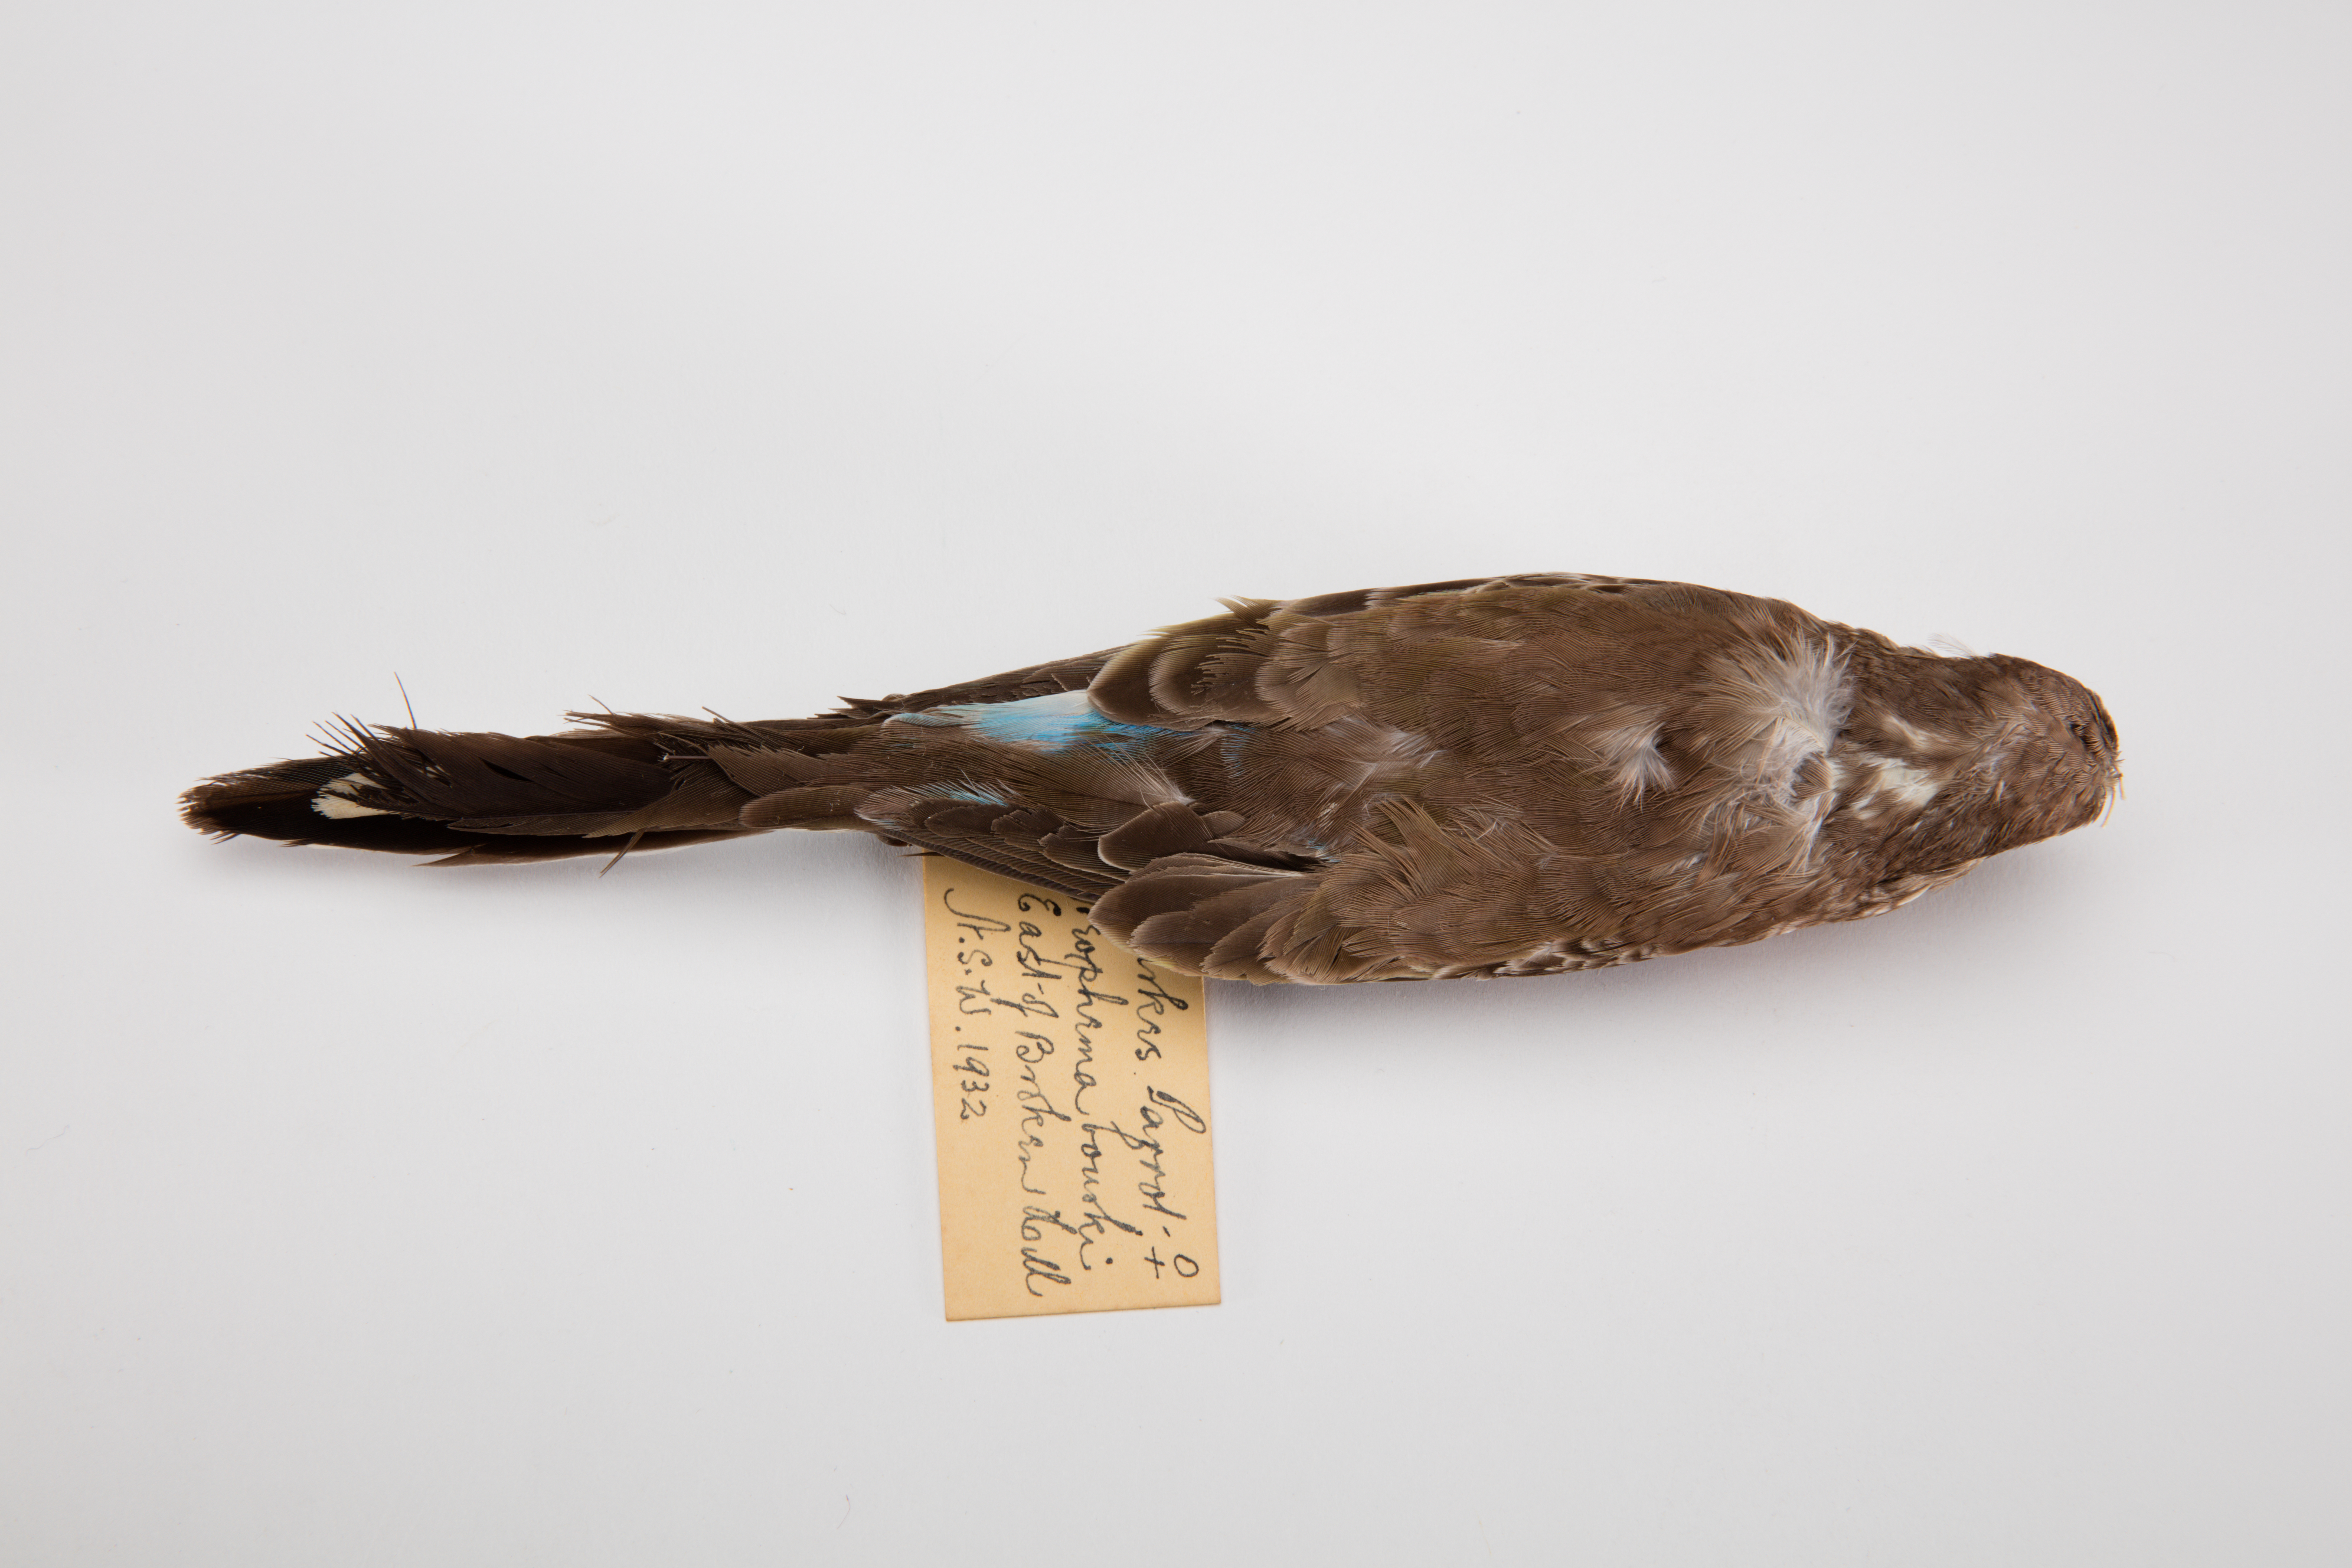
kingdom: Animalia
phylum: Chordata
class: Aves
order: Psittaciformes
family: Psittacidae
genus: Neopsephotus
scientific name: Neopsephotus bourkii
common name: Bourke's parrot
